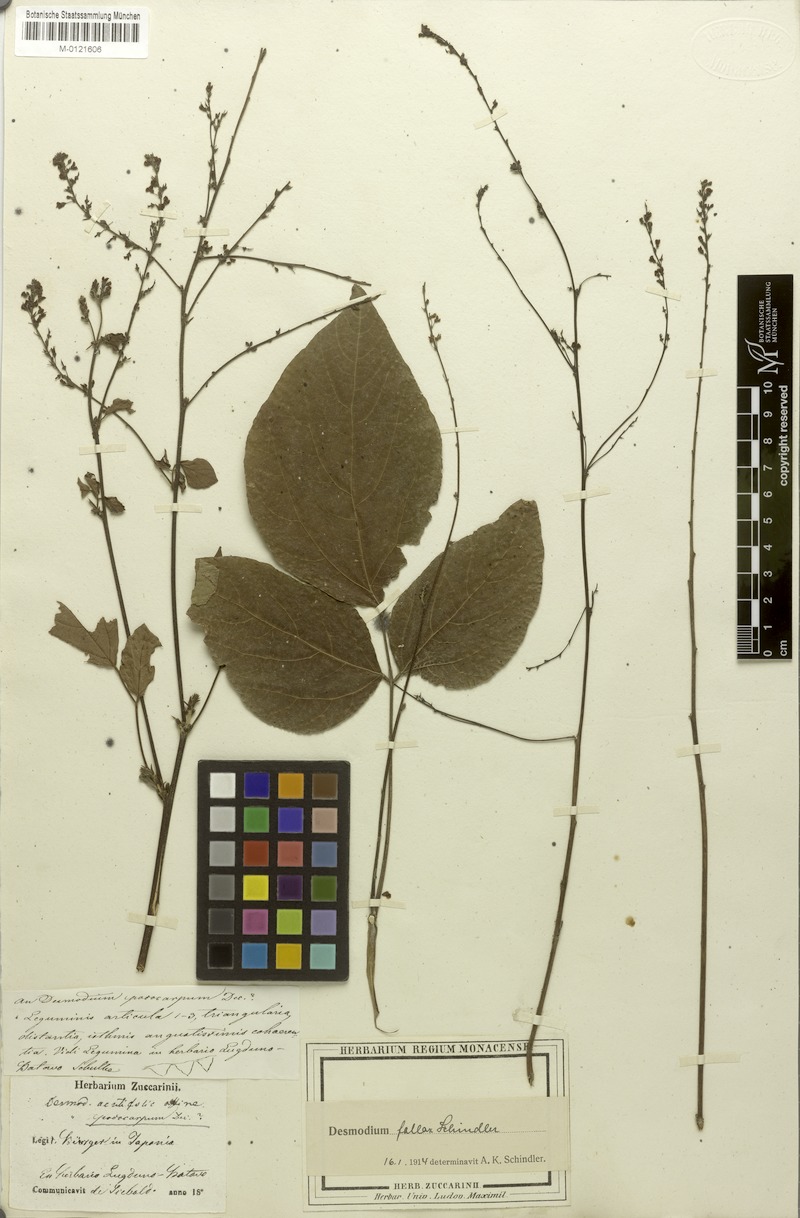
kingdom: Plantae
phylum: Tracheophyta
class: Magnoliopsida
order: Fabales
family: Fabaceae
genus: Hylodesmum
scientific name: Hylodesmum podocarpum
